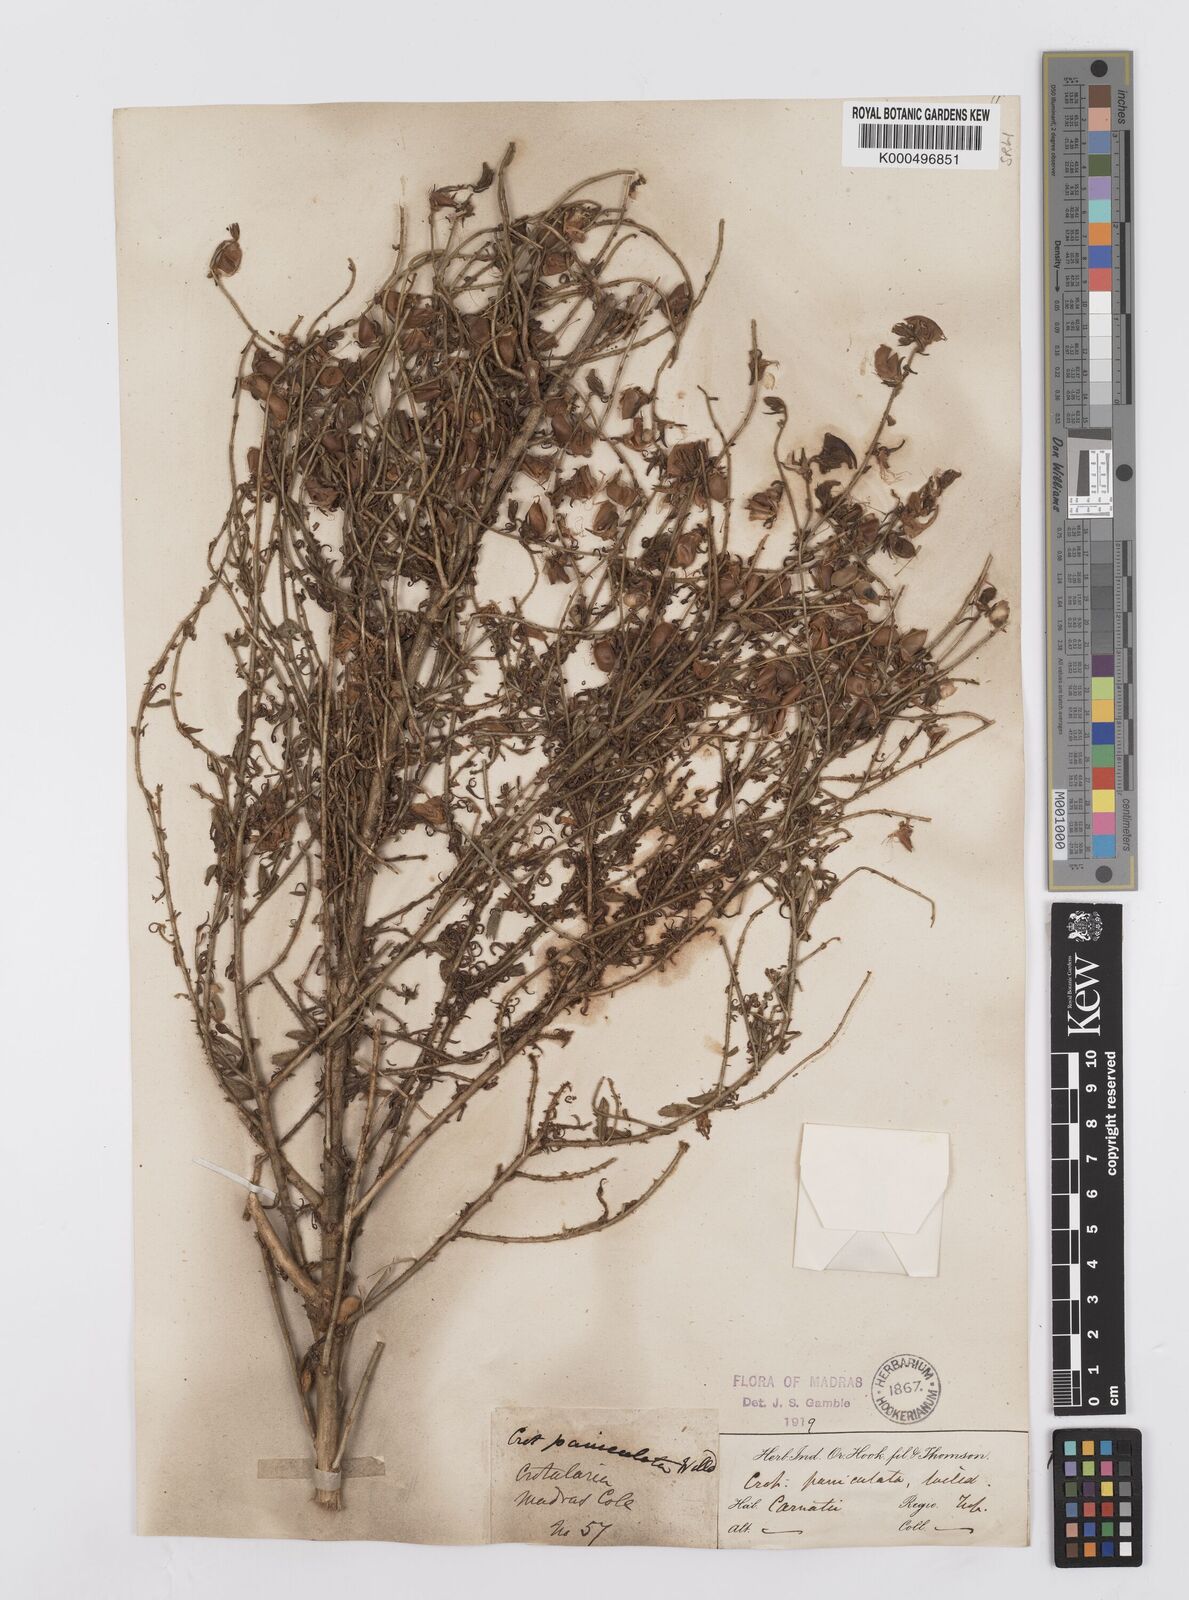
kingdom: Plantae
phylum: Tracheophyta
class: Magnoliopsida
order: Fabales
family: Fabaceae
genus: Crotalaria
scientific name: Crotalaria paniculata
